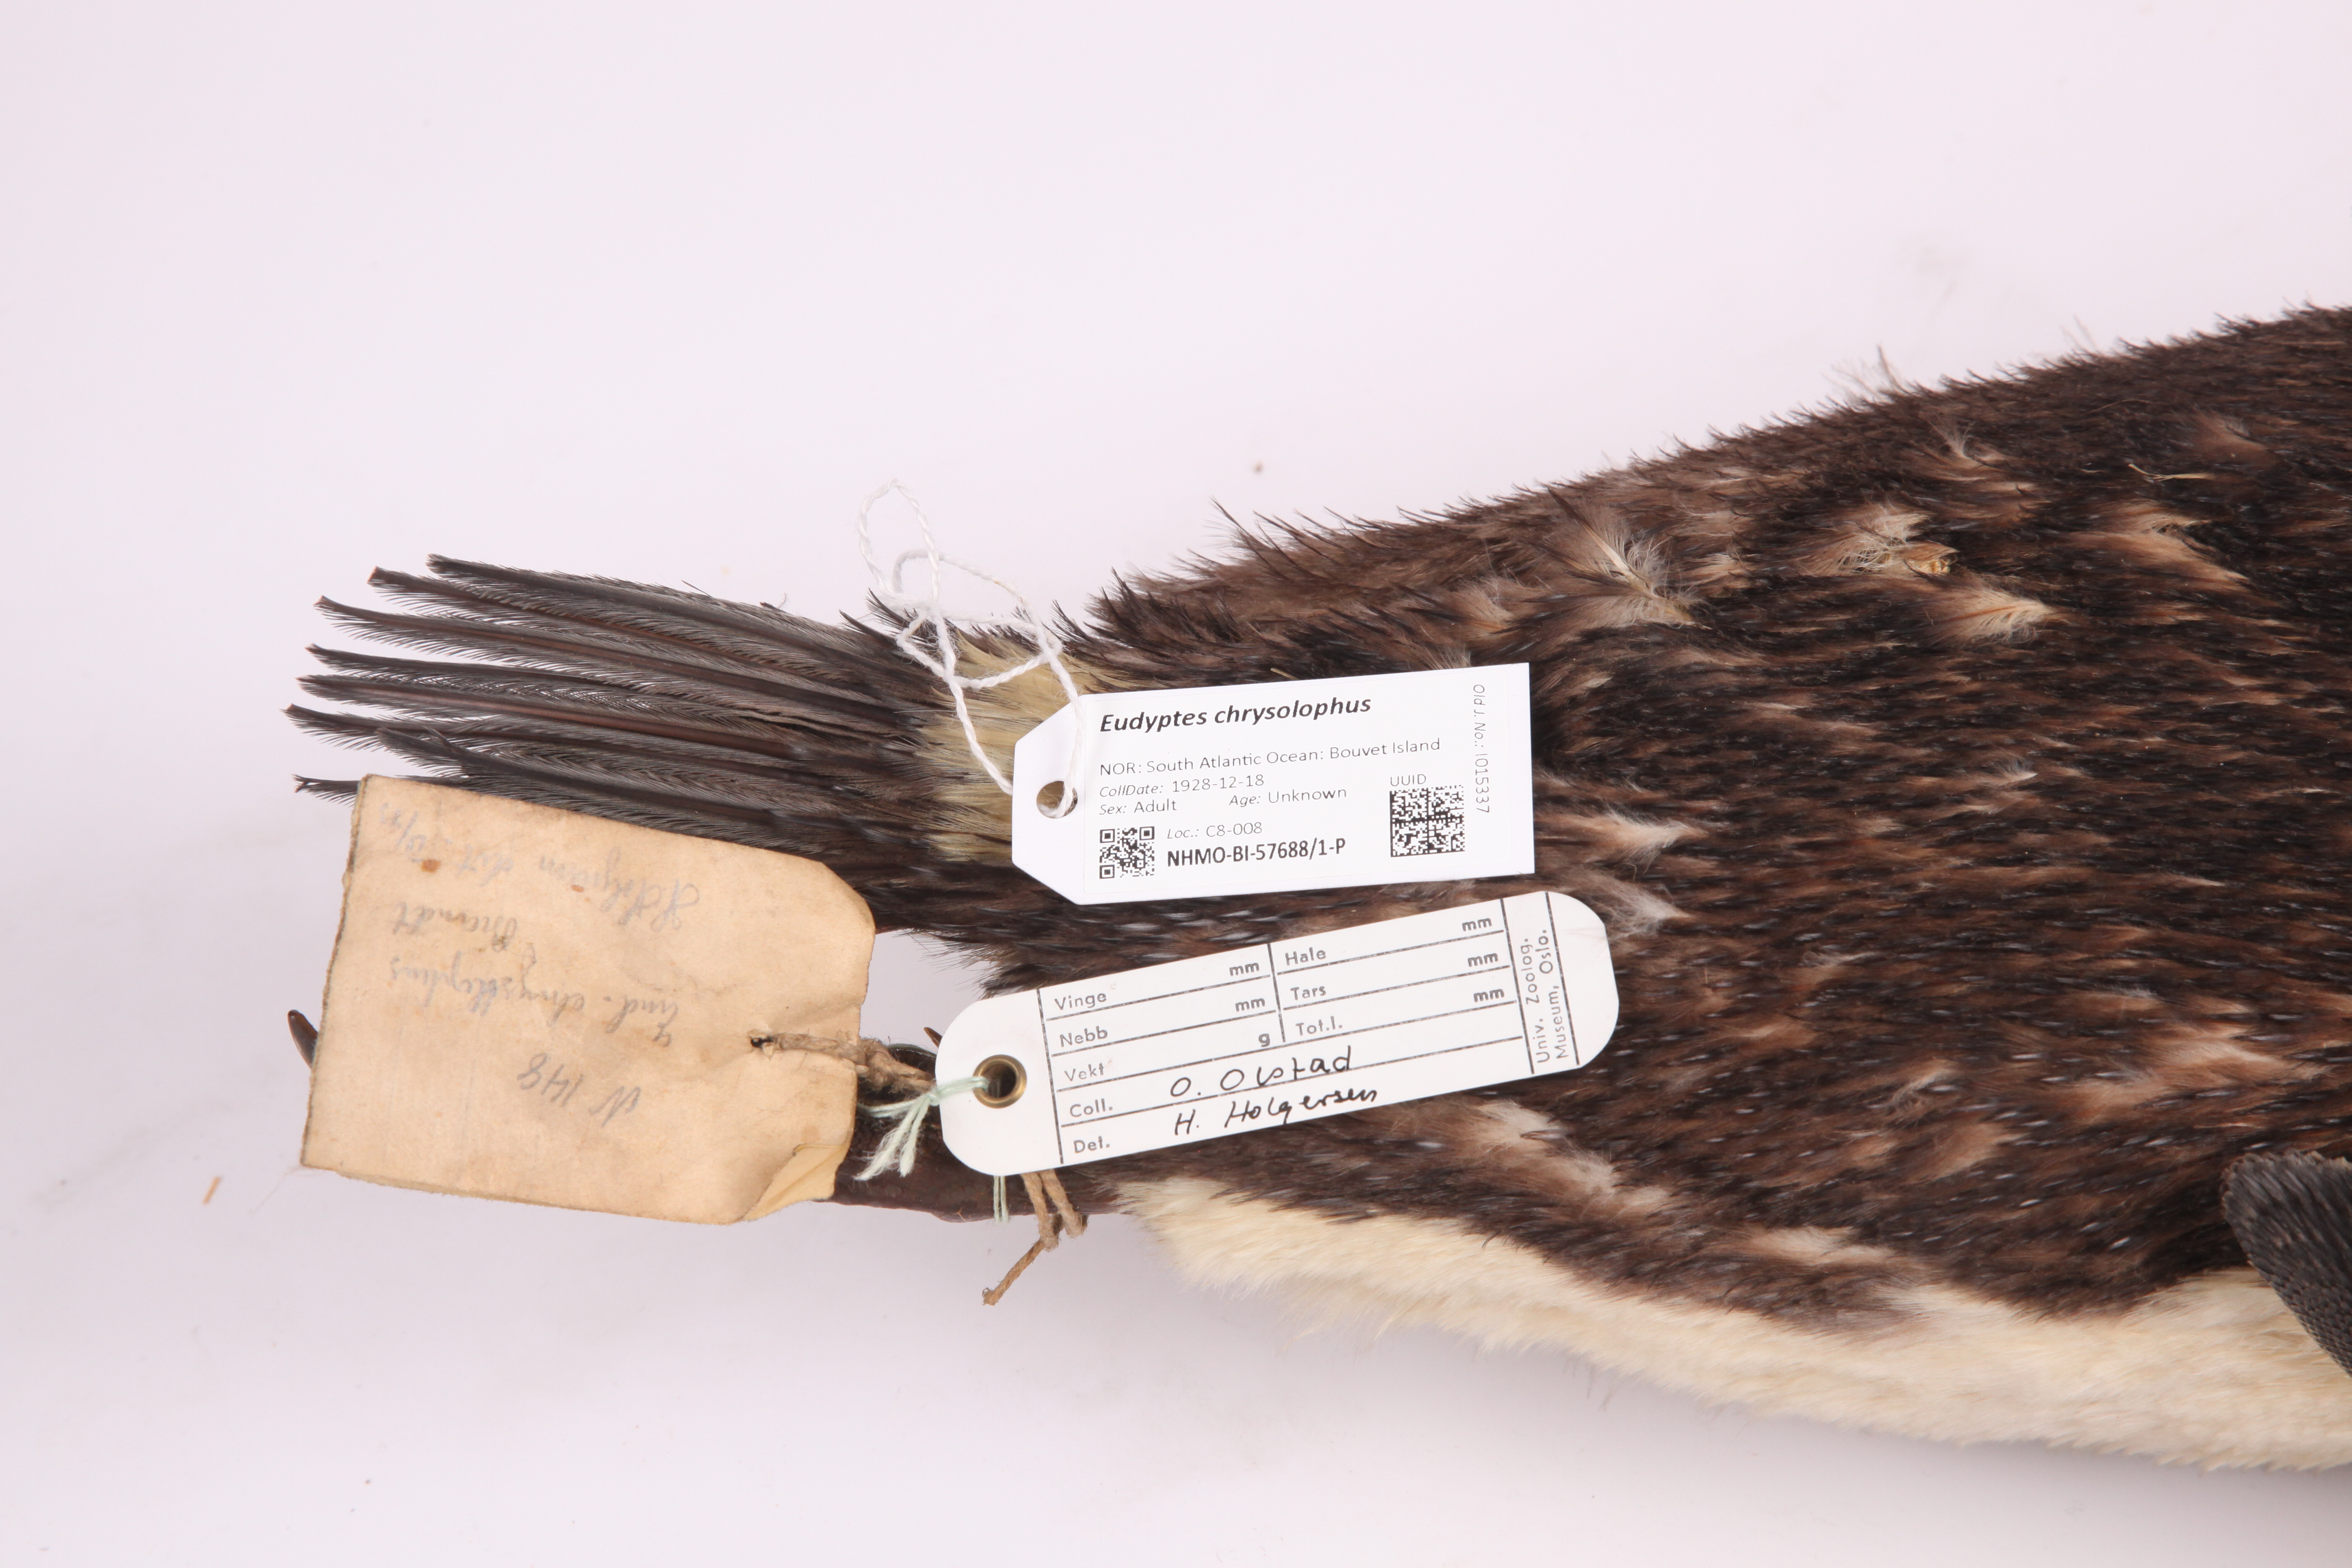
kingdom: Animalia
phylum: Chordata
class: Aves
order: Sphenisciformes
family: Spheniscidae
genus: Eudyptes
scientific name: Eudyptes chrysolophus
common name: Macaroni penguin
